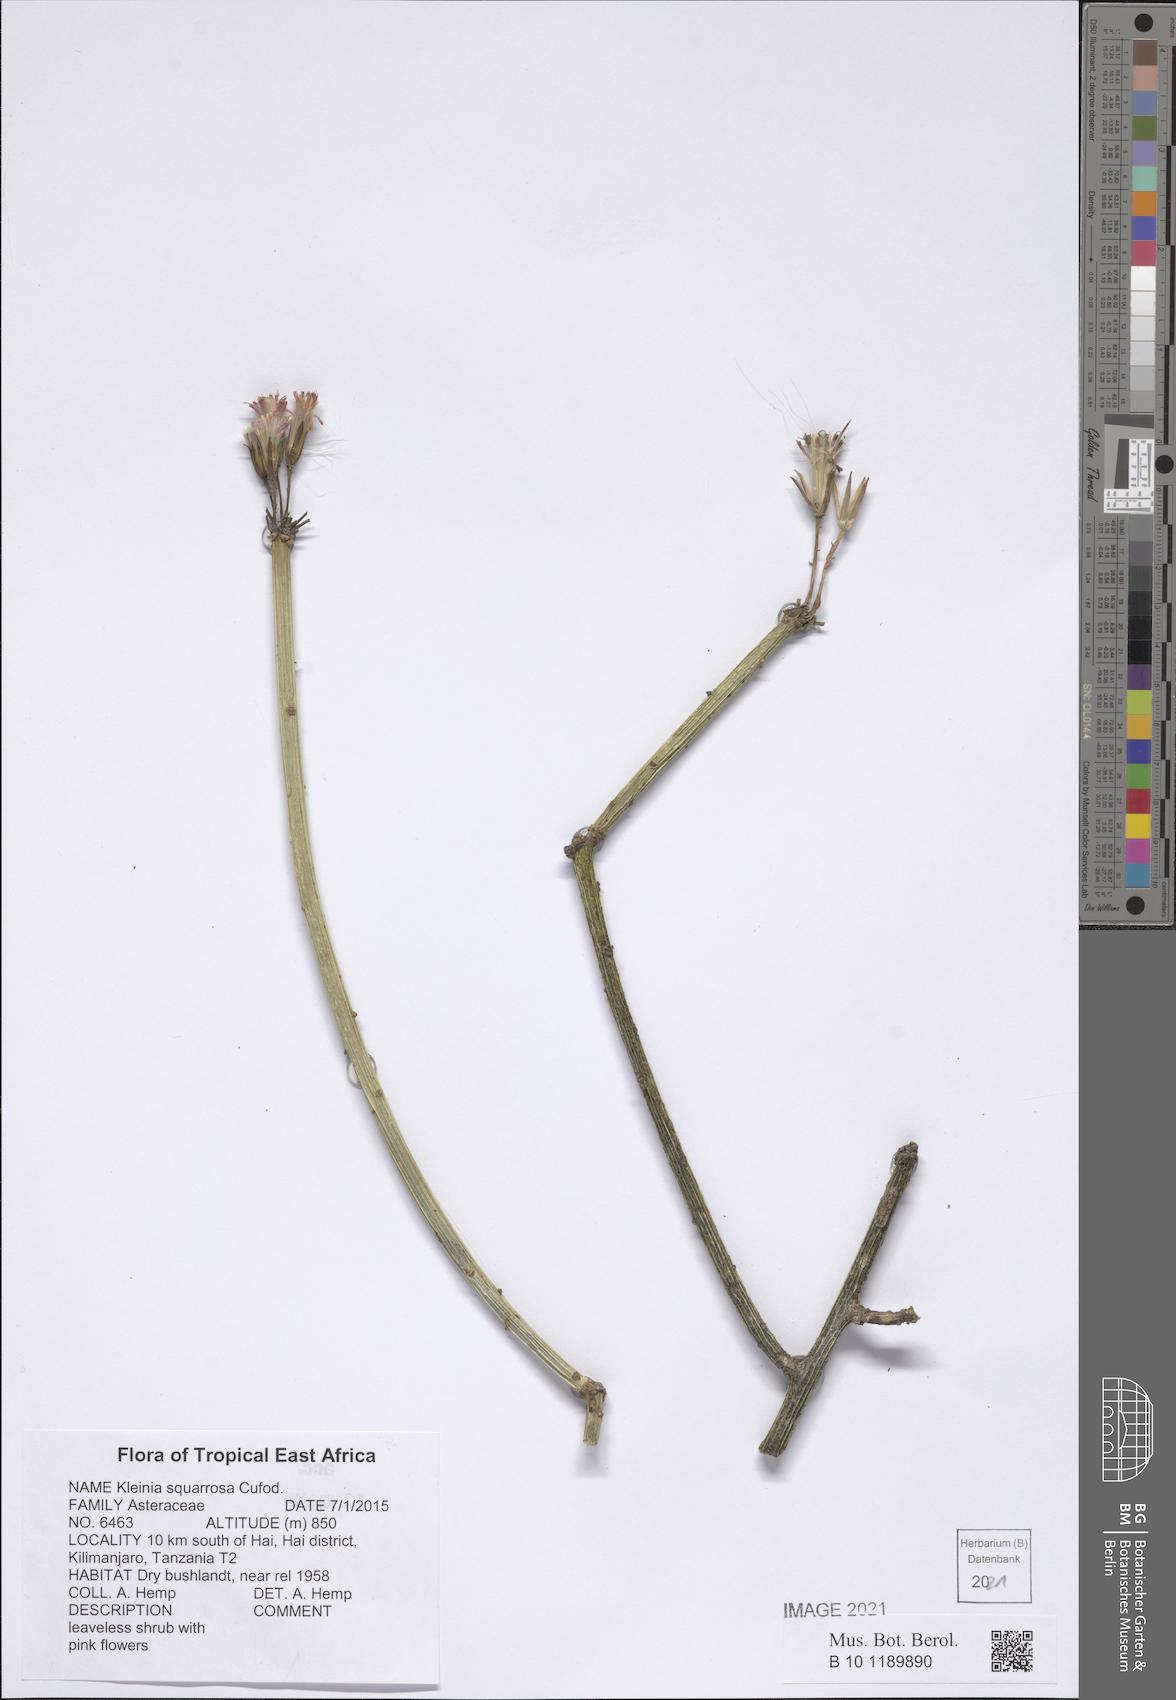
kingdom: Plantae
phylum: Tracheophyta
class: Magnoliopsida
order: Asterales
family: Asteraceae
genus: Kleinia
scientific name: Kleinia squarrosa
